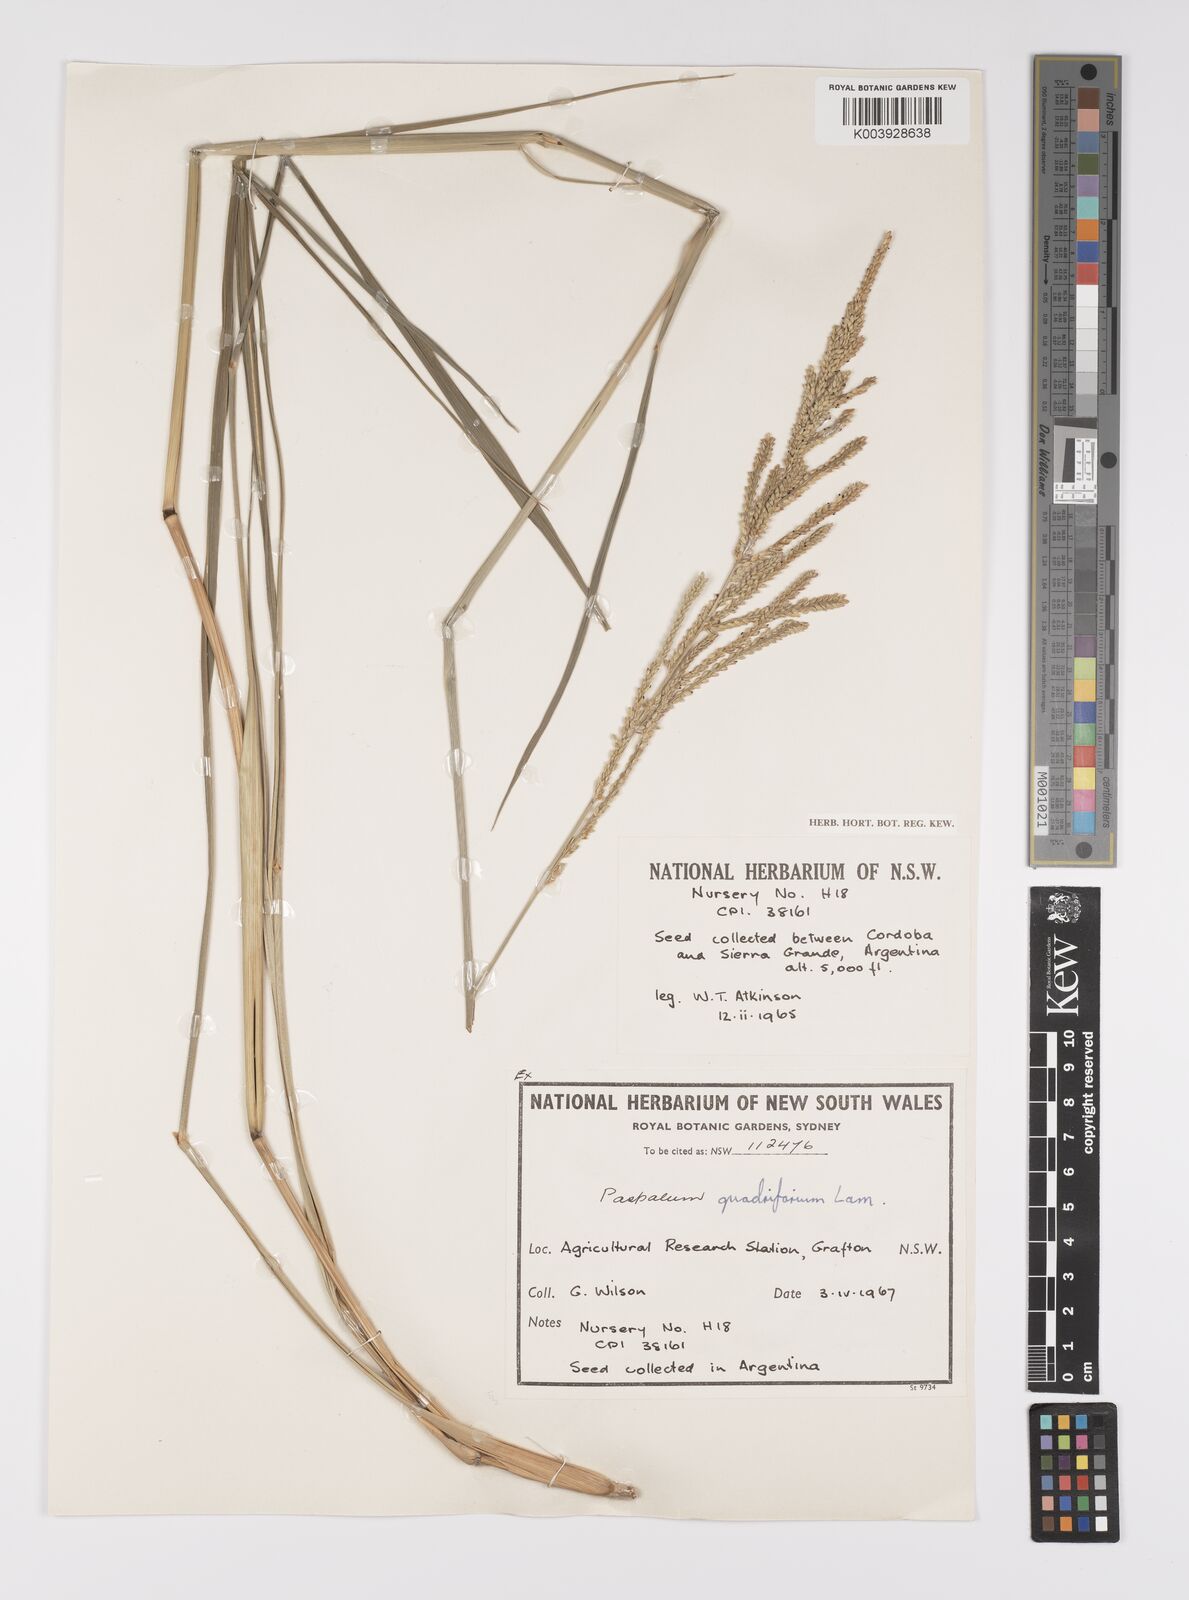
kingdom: Plantae
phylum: Tracheophyta
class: Liliopsida
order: Poales
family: Poaceae
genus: Paspalum
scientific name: Paspalum quadrifarium
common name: Tussock paspalum
